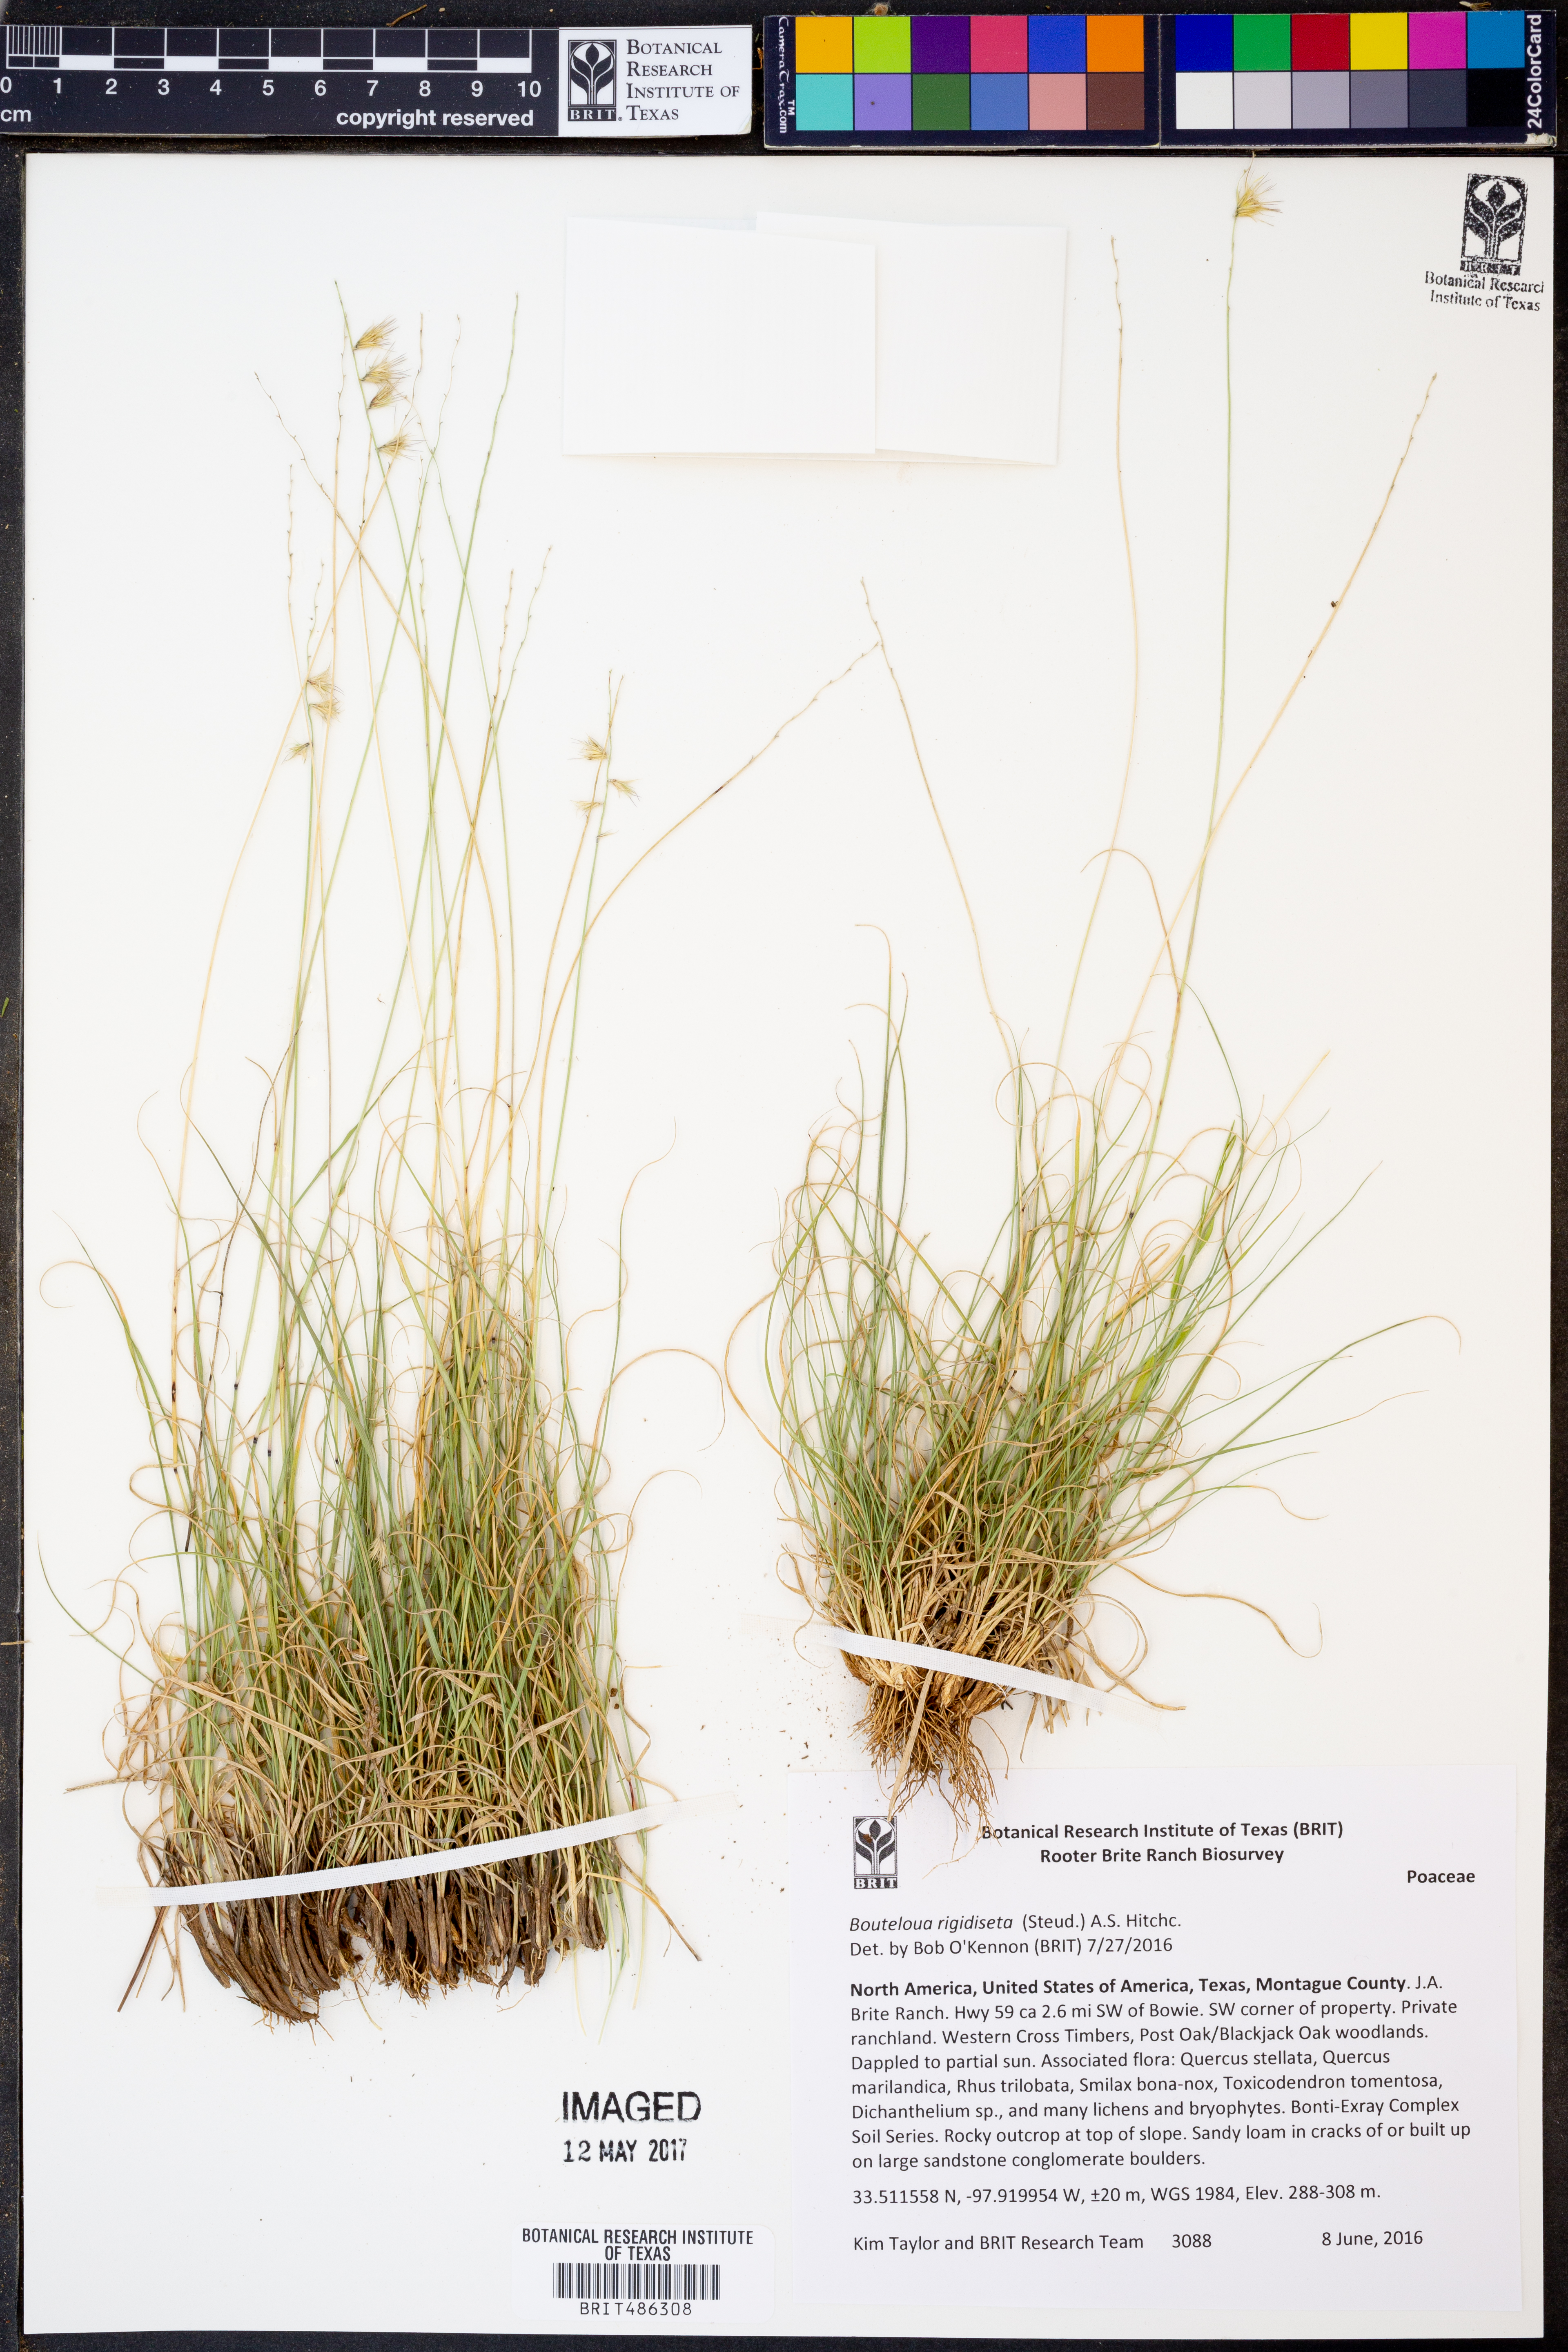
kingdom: Plantae
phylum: Tracheophyta
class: Liliopsida
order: Poales
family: Poaceae
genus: Bouteloua
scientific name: Bouteloua rigidiseta
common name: Texas grama
